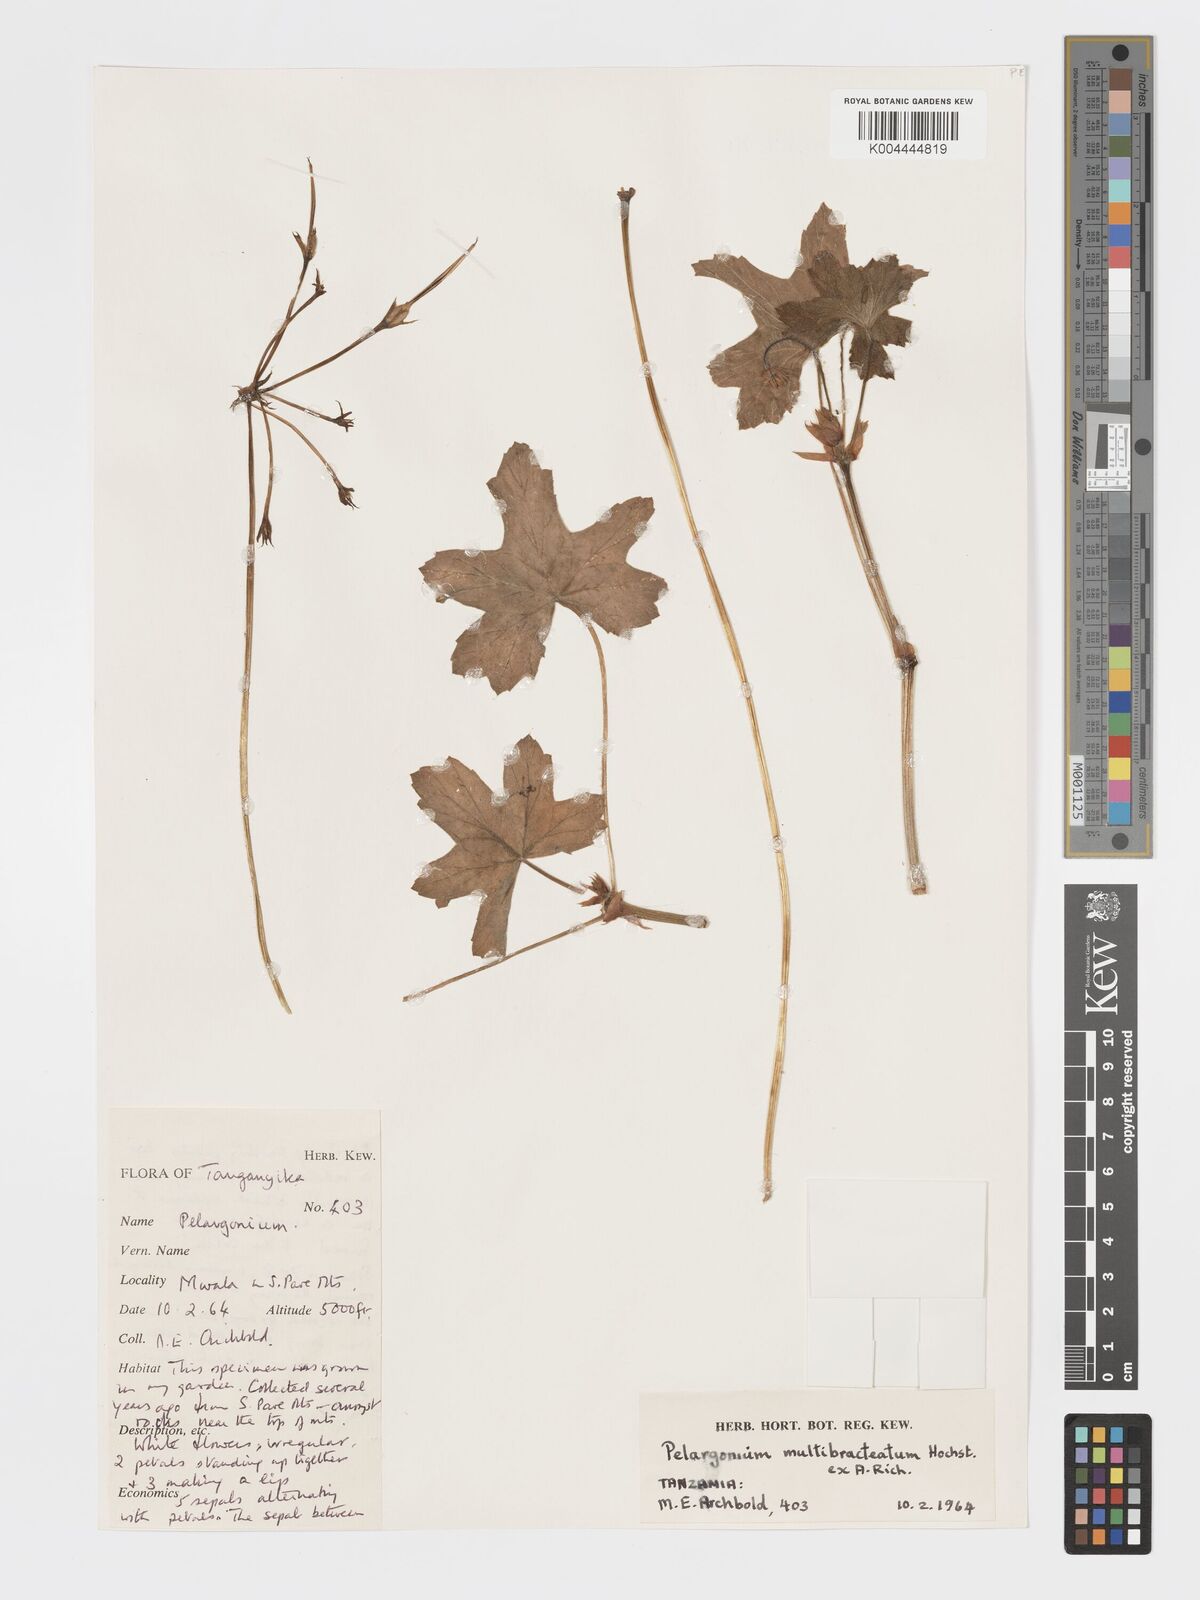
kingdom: Plantae
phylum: Tracheophyta
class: Magnoliopsida
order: Geraniales
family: Geraniaceae
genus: Pelargonium
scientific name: Pelargonium alchemilloides
